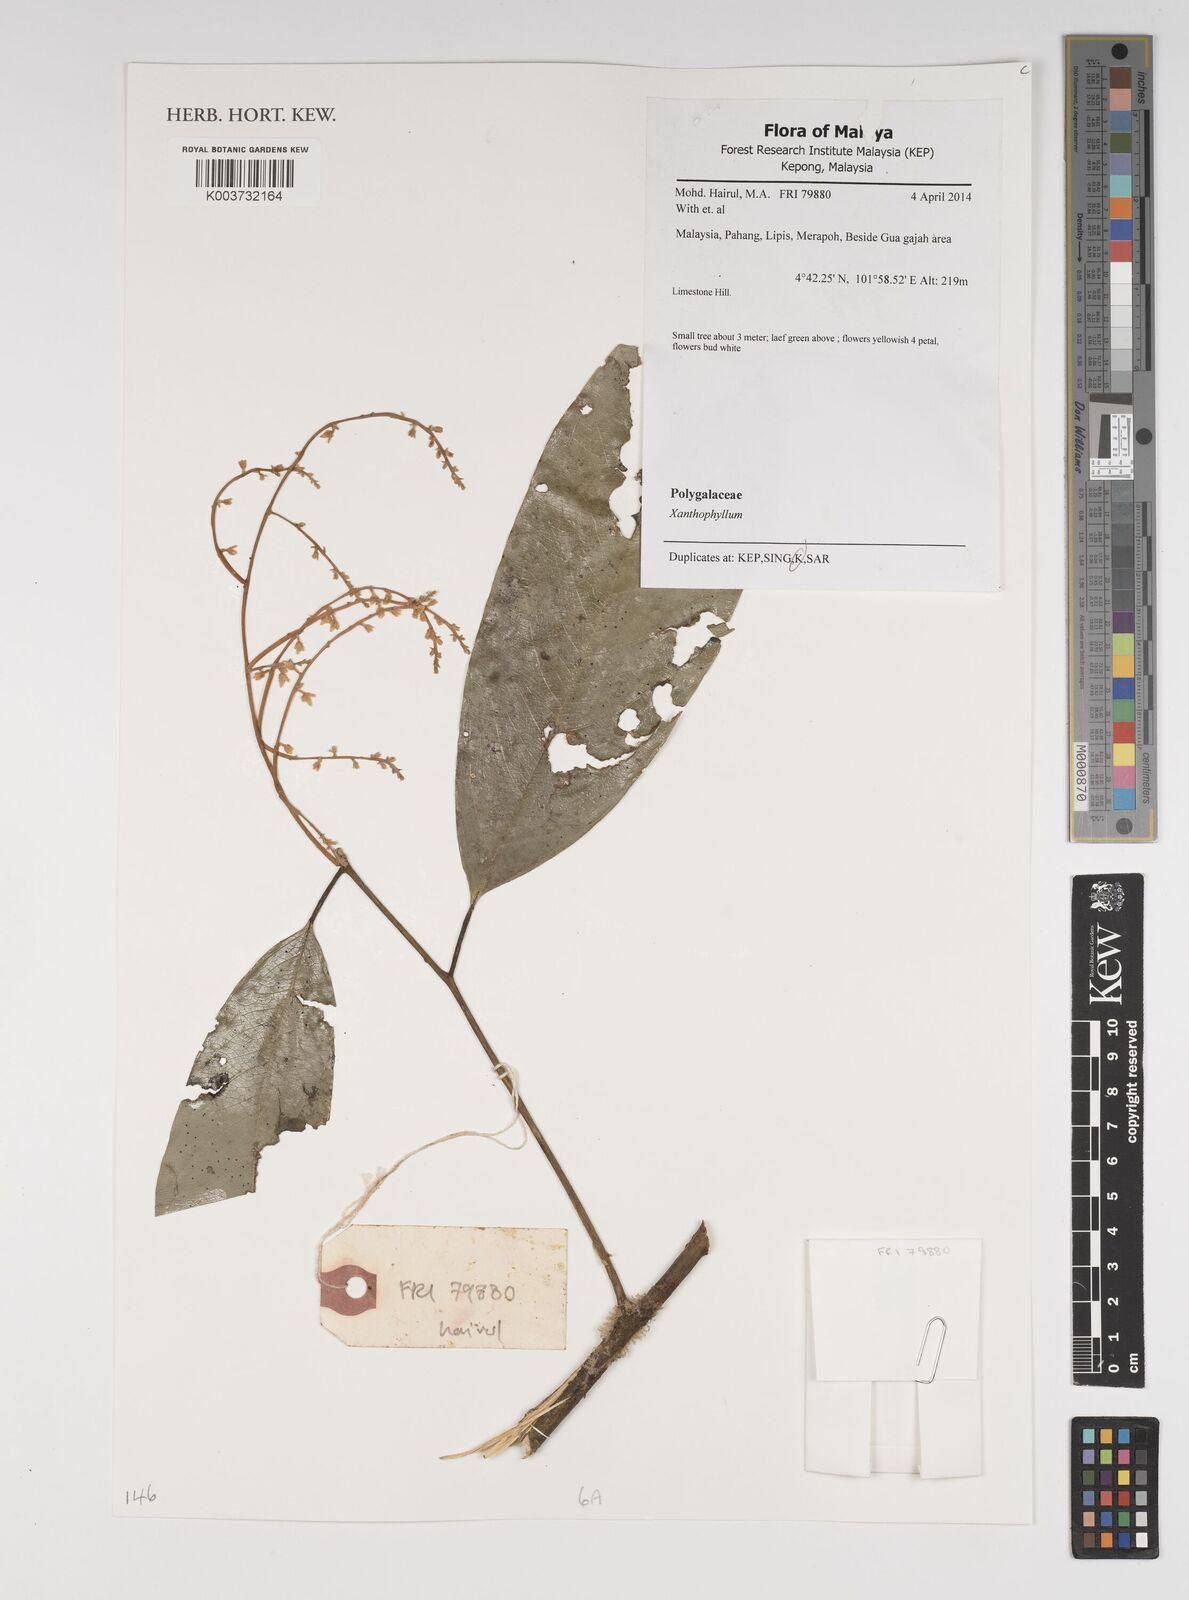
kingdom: Plantae
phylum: Tracheophyta
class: Magnoliopsida
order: Fabales
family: Polygalaceae
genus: Xanthophyllum
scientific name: Xanthophyllum
